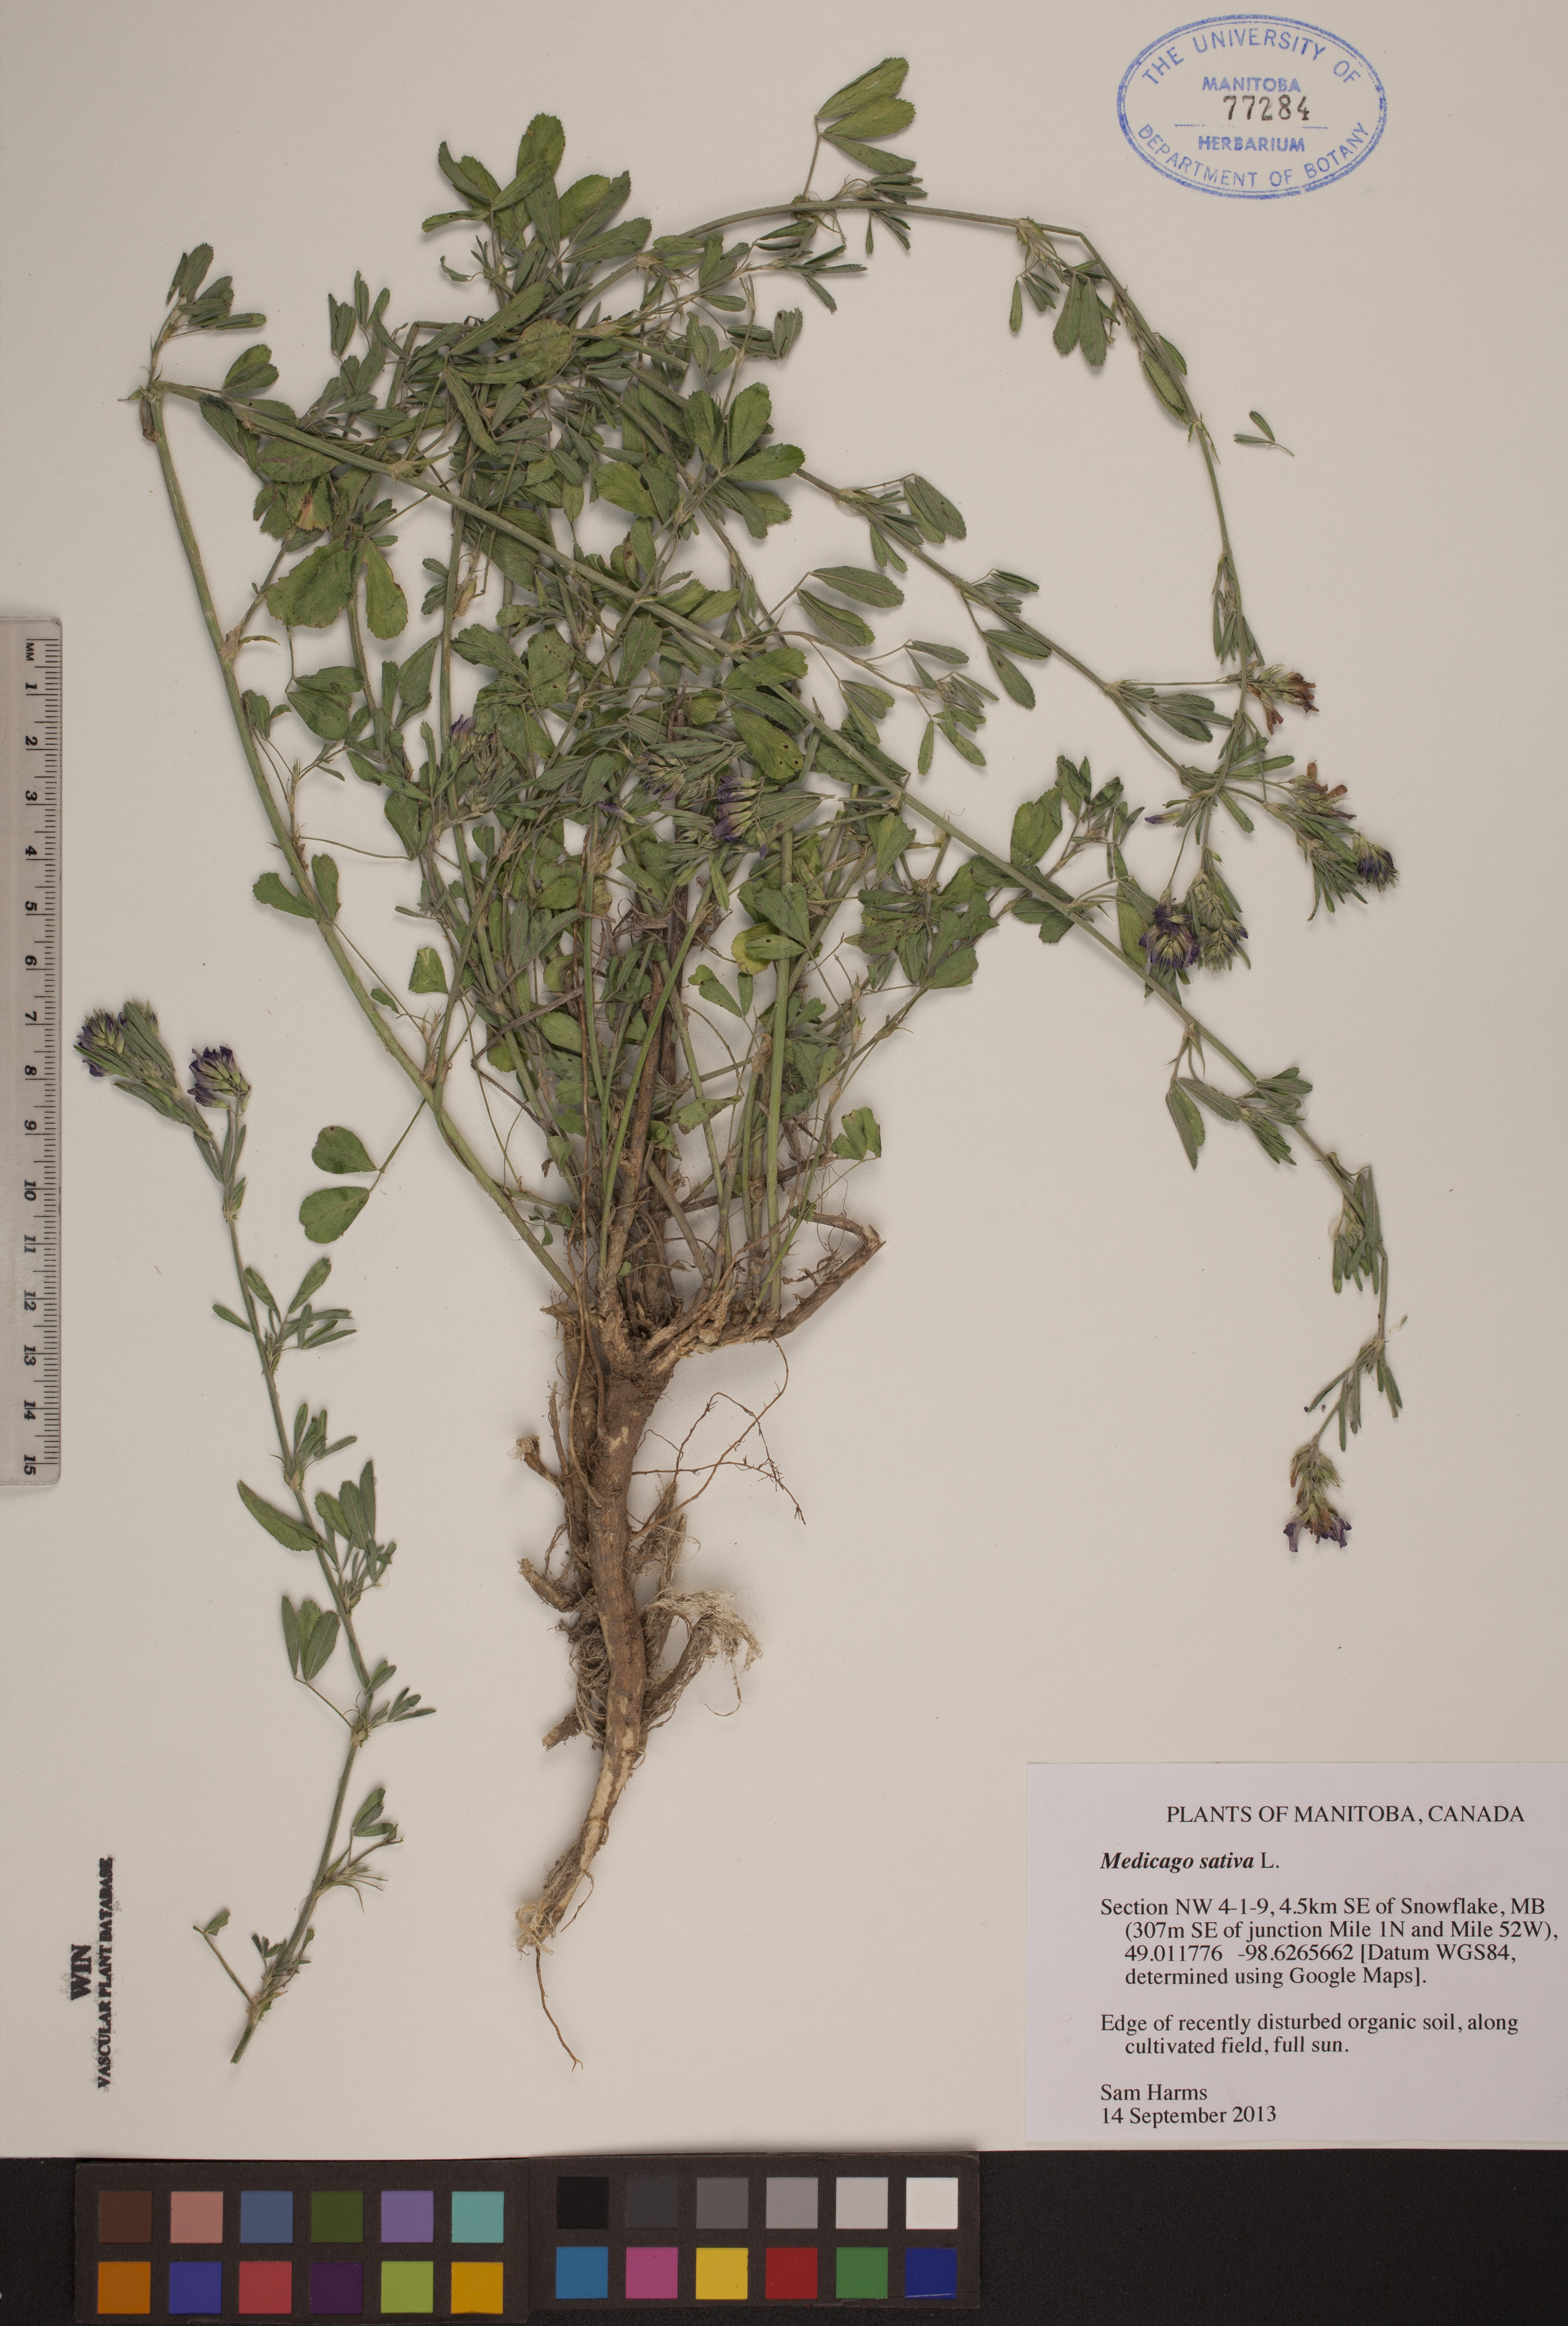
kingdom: Plantae
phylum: Tracheophyta
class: Magnoliopsida
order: Fabales
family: Fabaceae
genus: Medicago
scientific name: Medicago sativa
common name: Alfalfa
